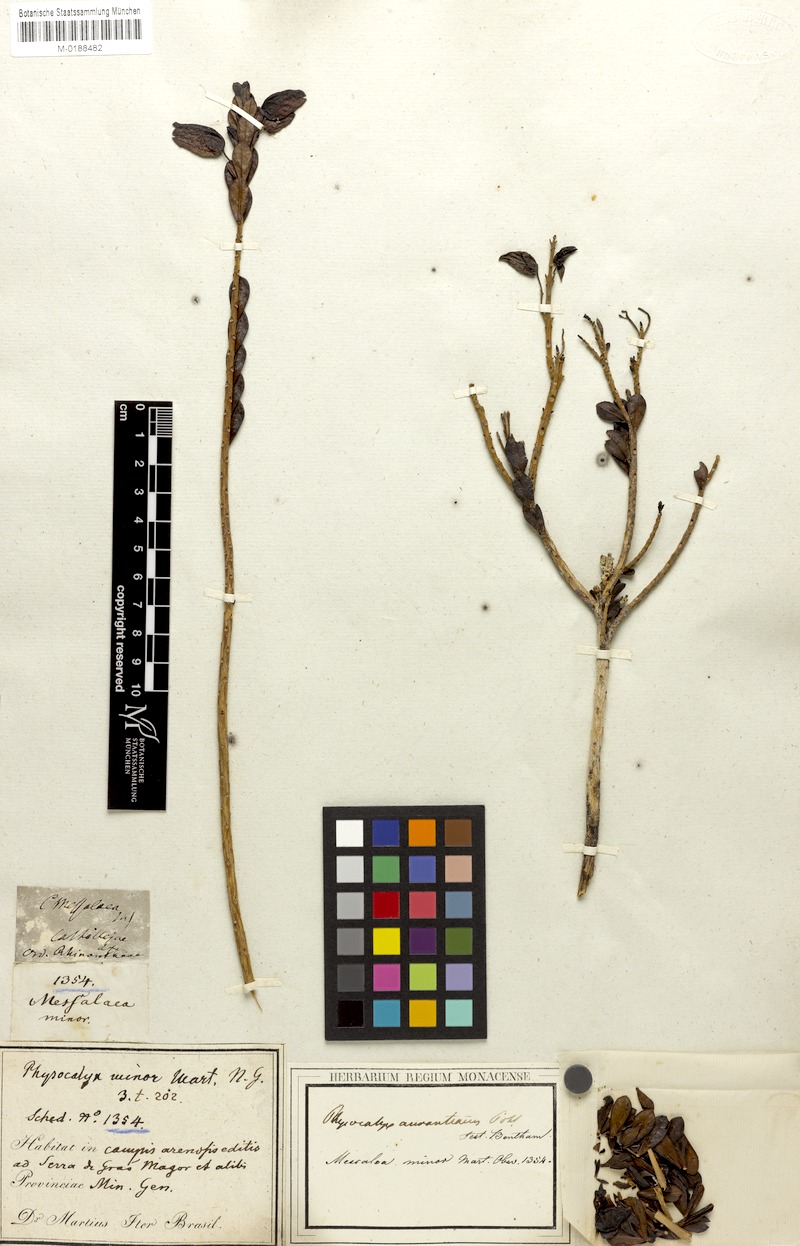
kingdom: Plantae
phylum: Tracheophyta
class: Magnoliopsida
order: Lamiales
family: Orobanchaceae
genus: Physocalyx
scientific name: Physocalyx aurantiacus
